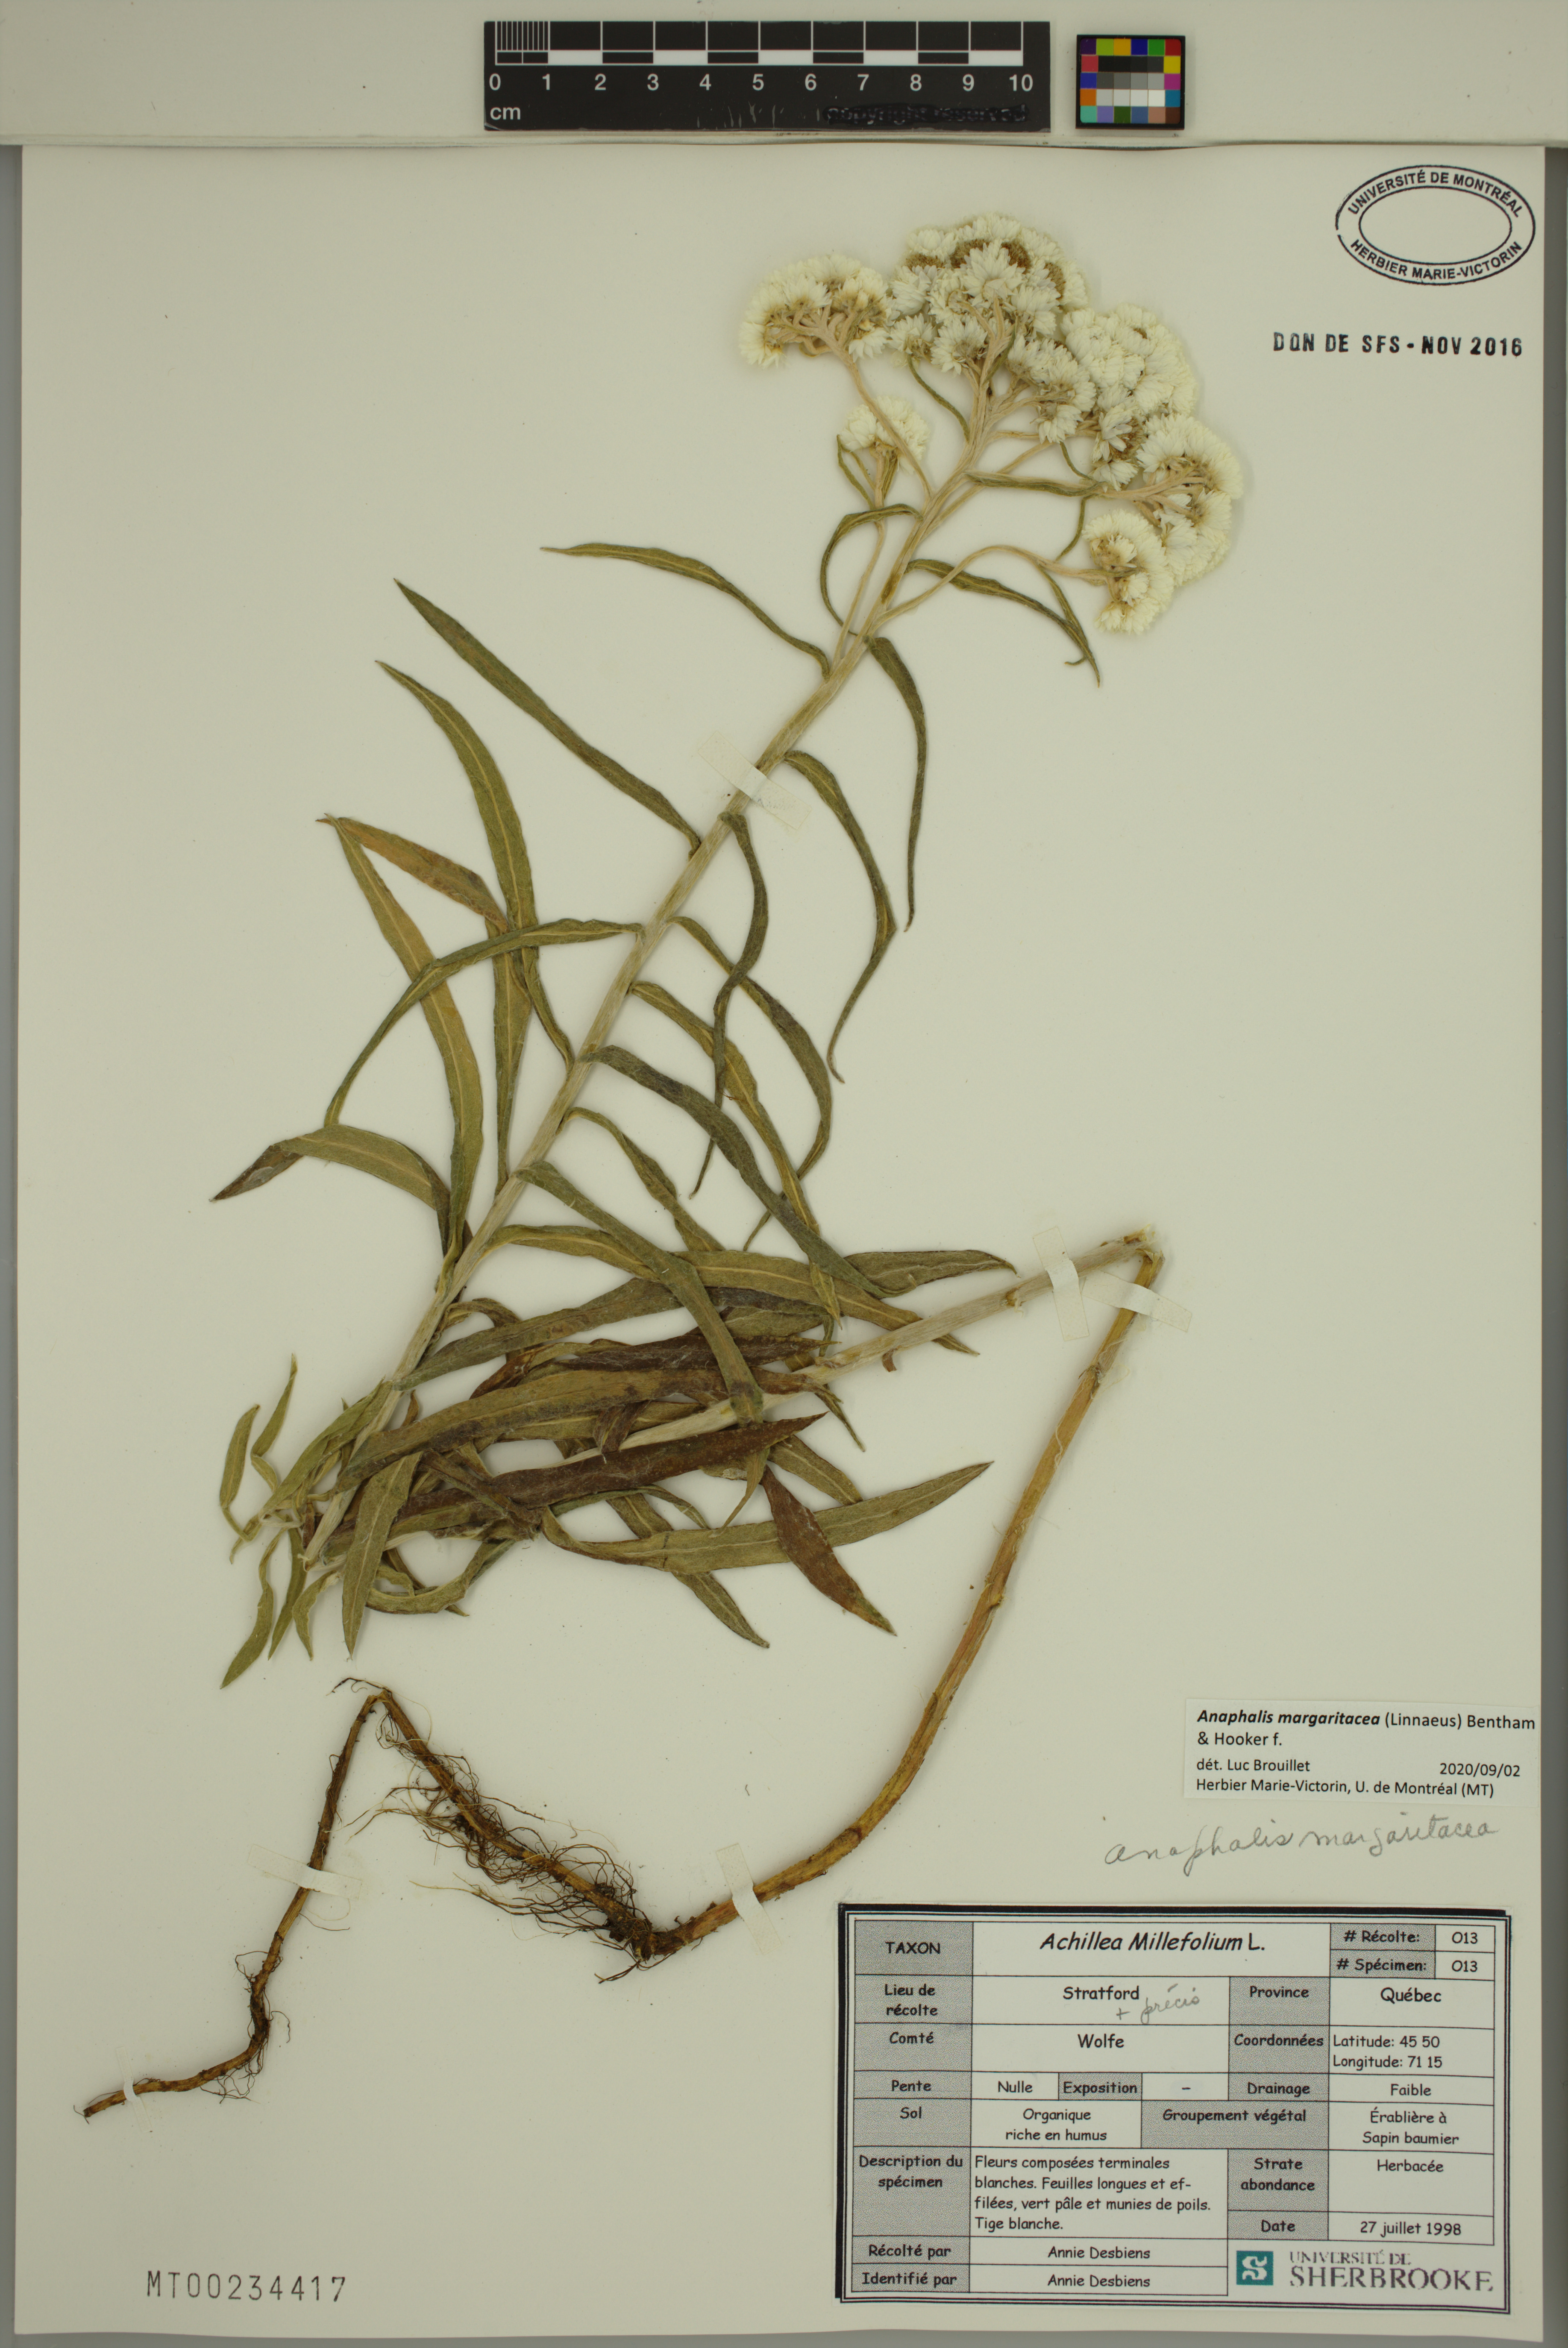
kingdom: Plantae
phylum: Tracheophyta
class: Magnoliopsida
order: Asterales
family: Asteraceae
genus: Anaphalis
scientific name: Anaphalis margaritacea
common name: Pearly everlasting
